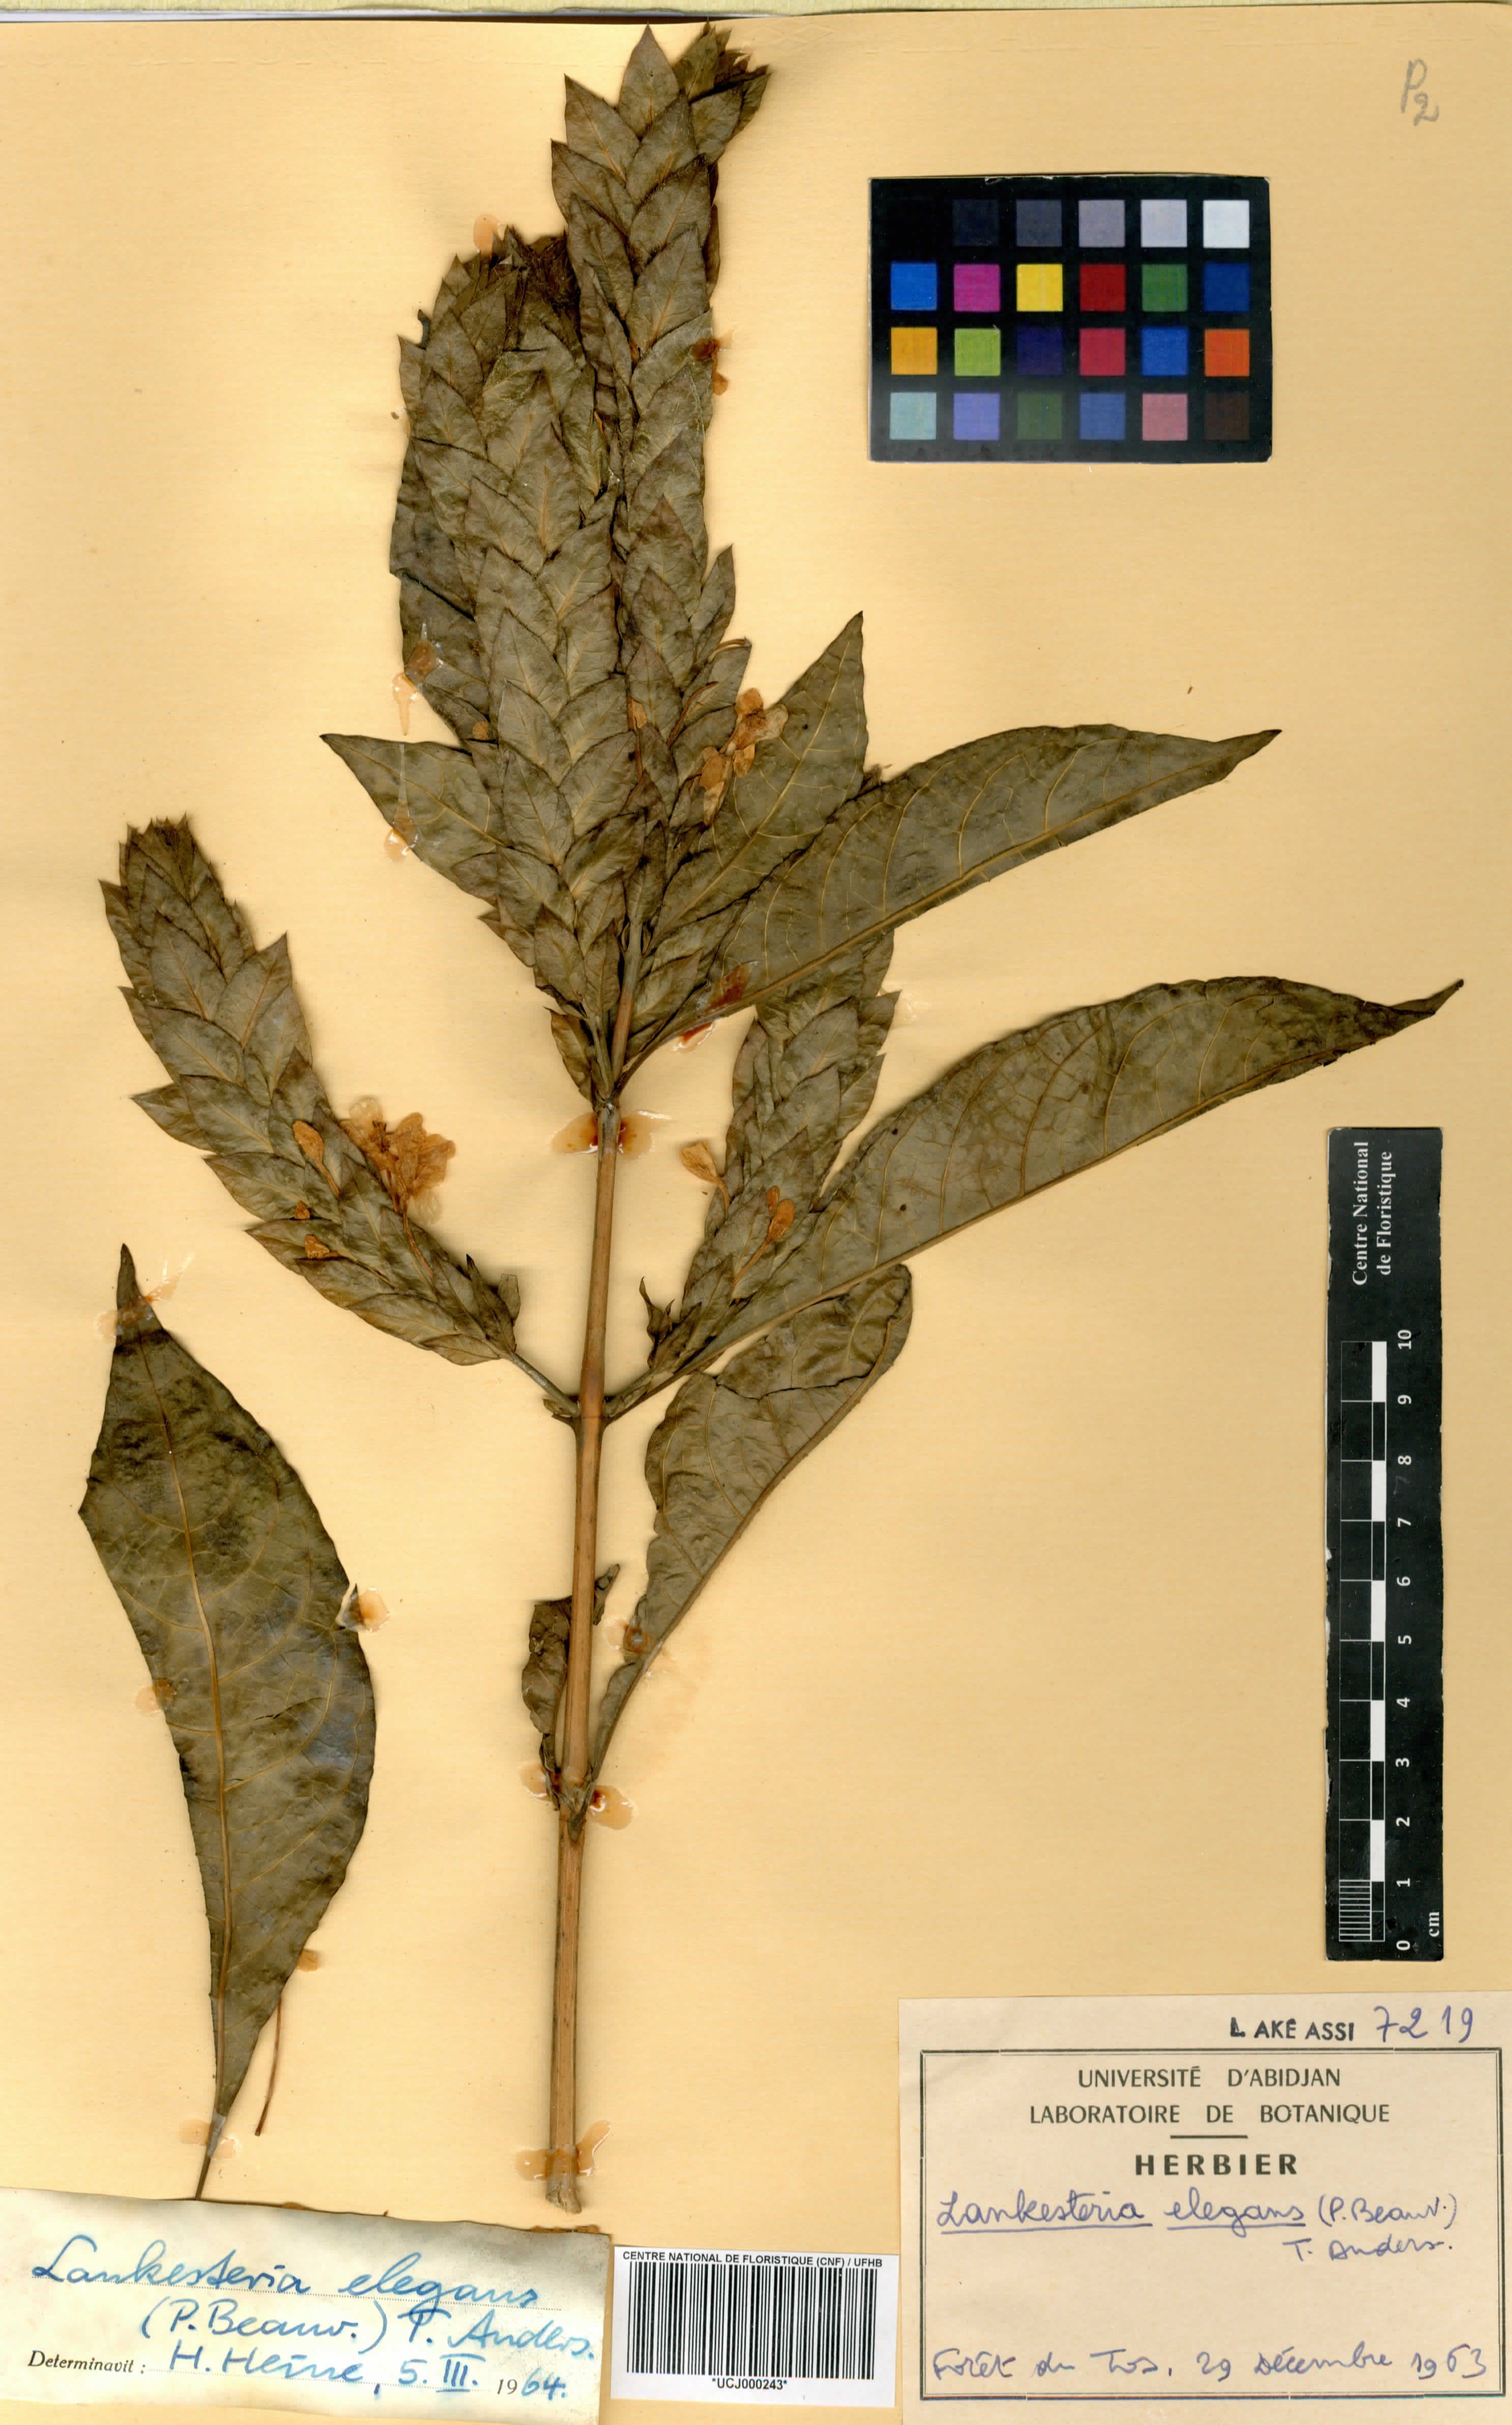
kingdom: Plantae
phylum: Tracheophyta
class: Magnoliopsida
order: Lamiales
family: Acanthaceae
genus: Lankesteria
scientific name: Lankesteria elegans
